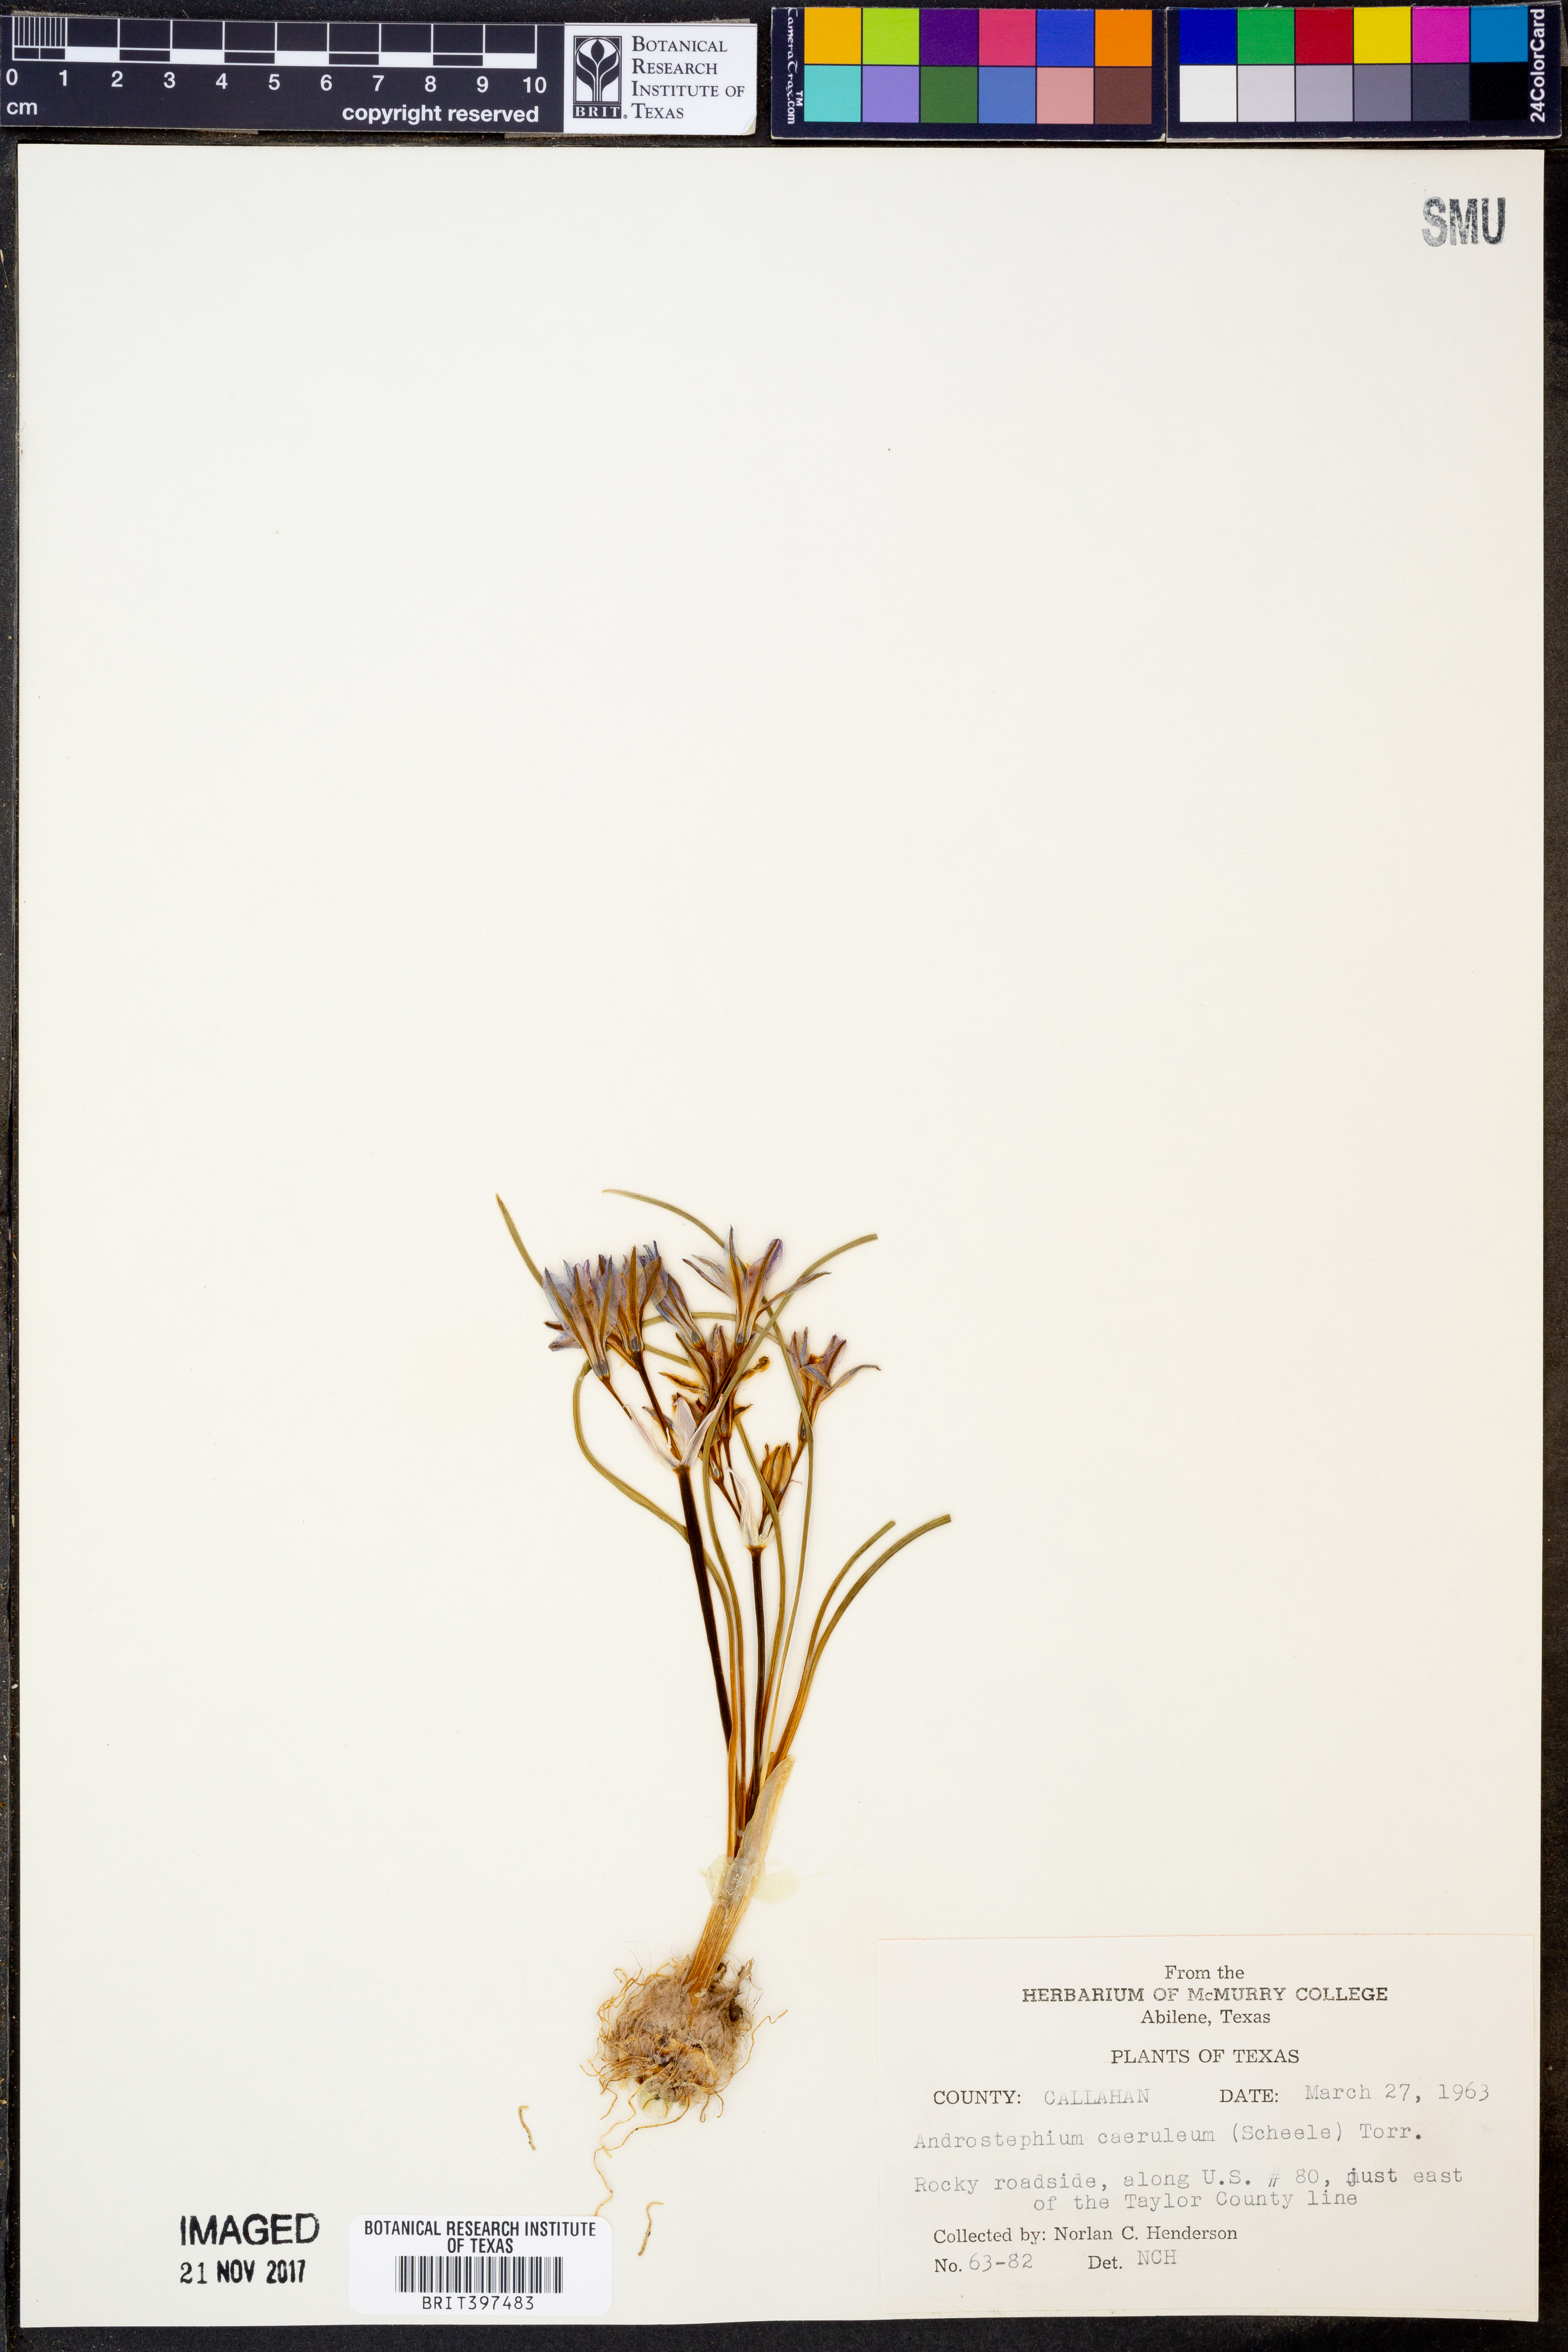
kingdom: Plantae
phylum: Tracheophyta
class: Liliopsida
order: Asparagales
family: Asparagaceae
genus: Androstephium
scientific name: Androstephium caeruleum
